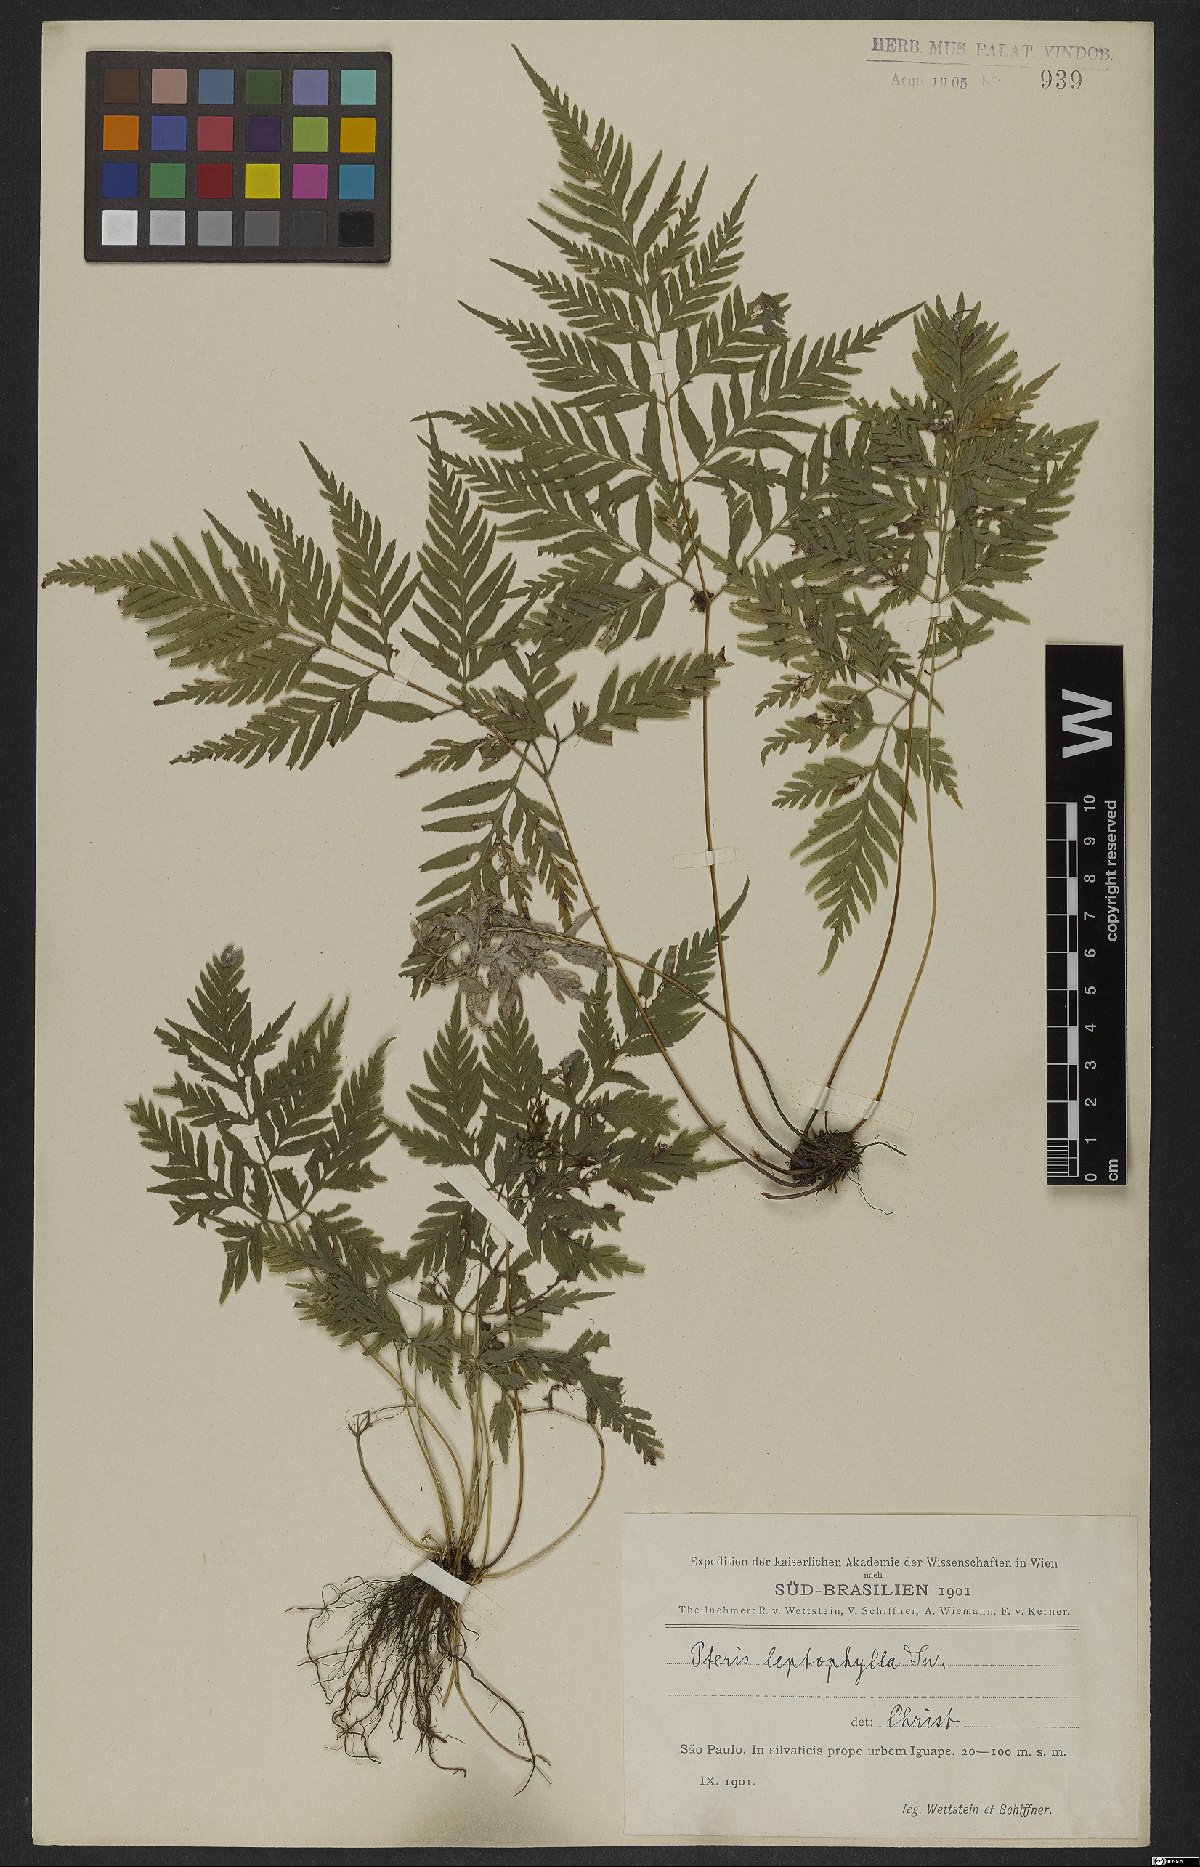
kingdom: Plantae
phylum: Tracheophyta
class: Polypodiopsida
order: Polypodiales
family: Pteridaceae
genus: Pteris
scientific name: Pteris leptophylla
